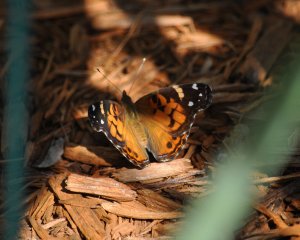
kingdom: Animalia
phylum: Arthropoda
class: Insecta
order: Lepidoptera
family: Nymphalidae
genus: Vanessa
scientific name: Vanessa virginiensis
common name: American Lady
